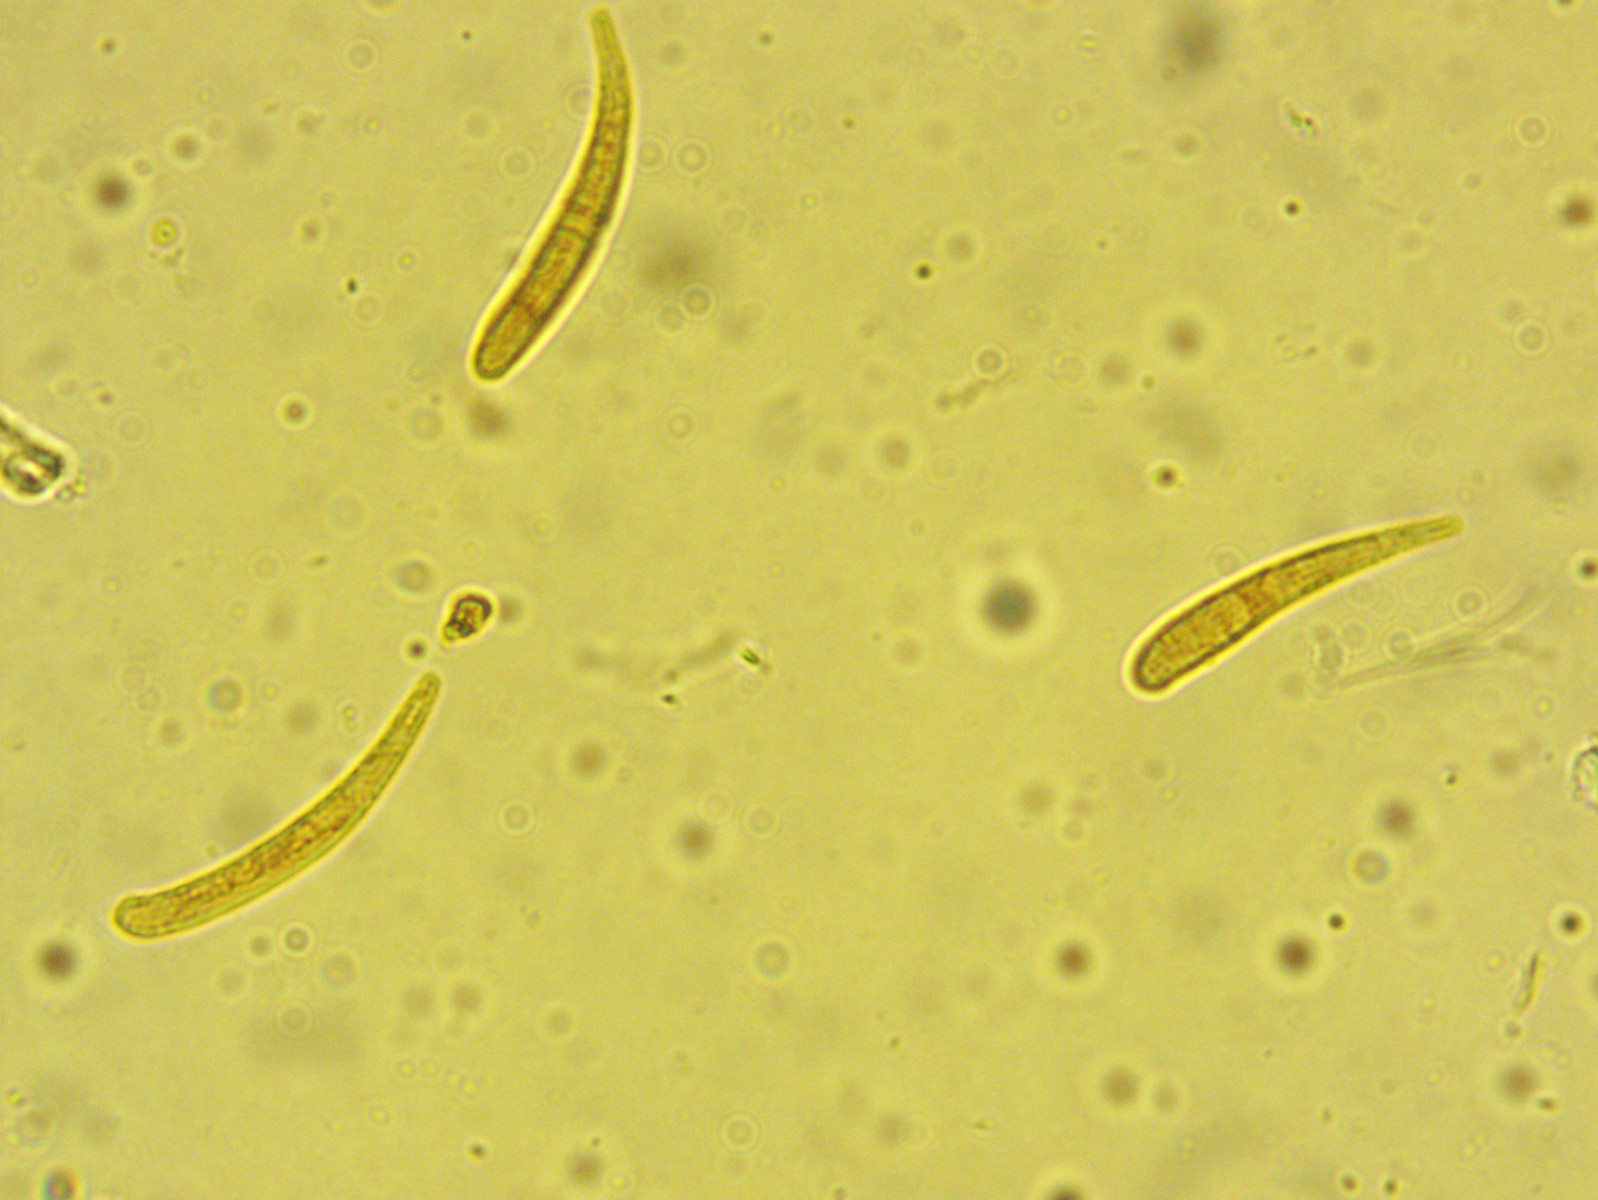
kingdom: Fungi
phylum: Ascomycota
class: Leotiomycetes
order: Helotiales
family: Helotiaceae
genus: Hymenoscyphus
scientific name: Hymenoscyphus serotinus
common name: krumsporet stilkskive
